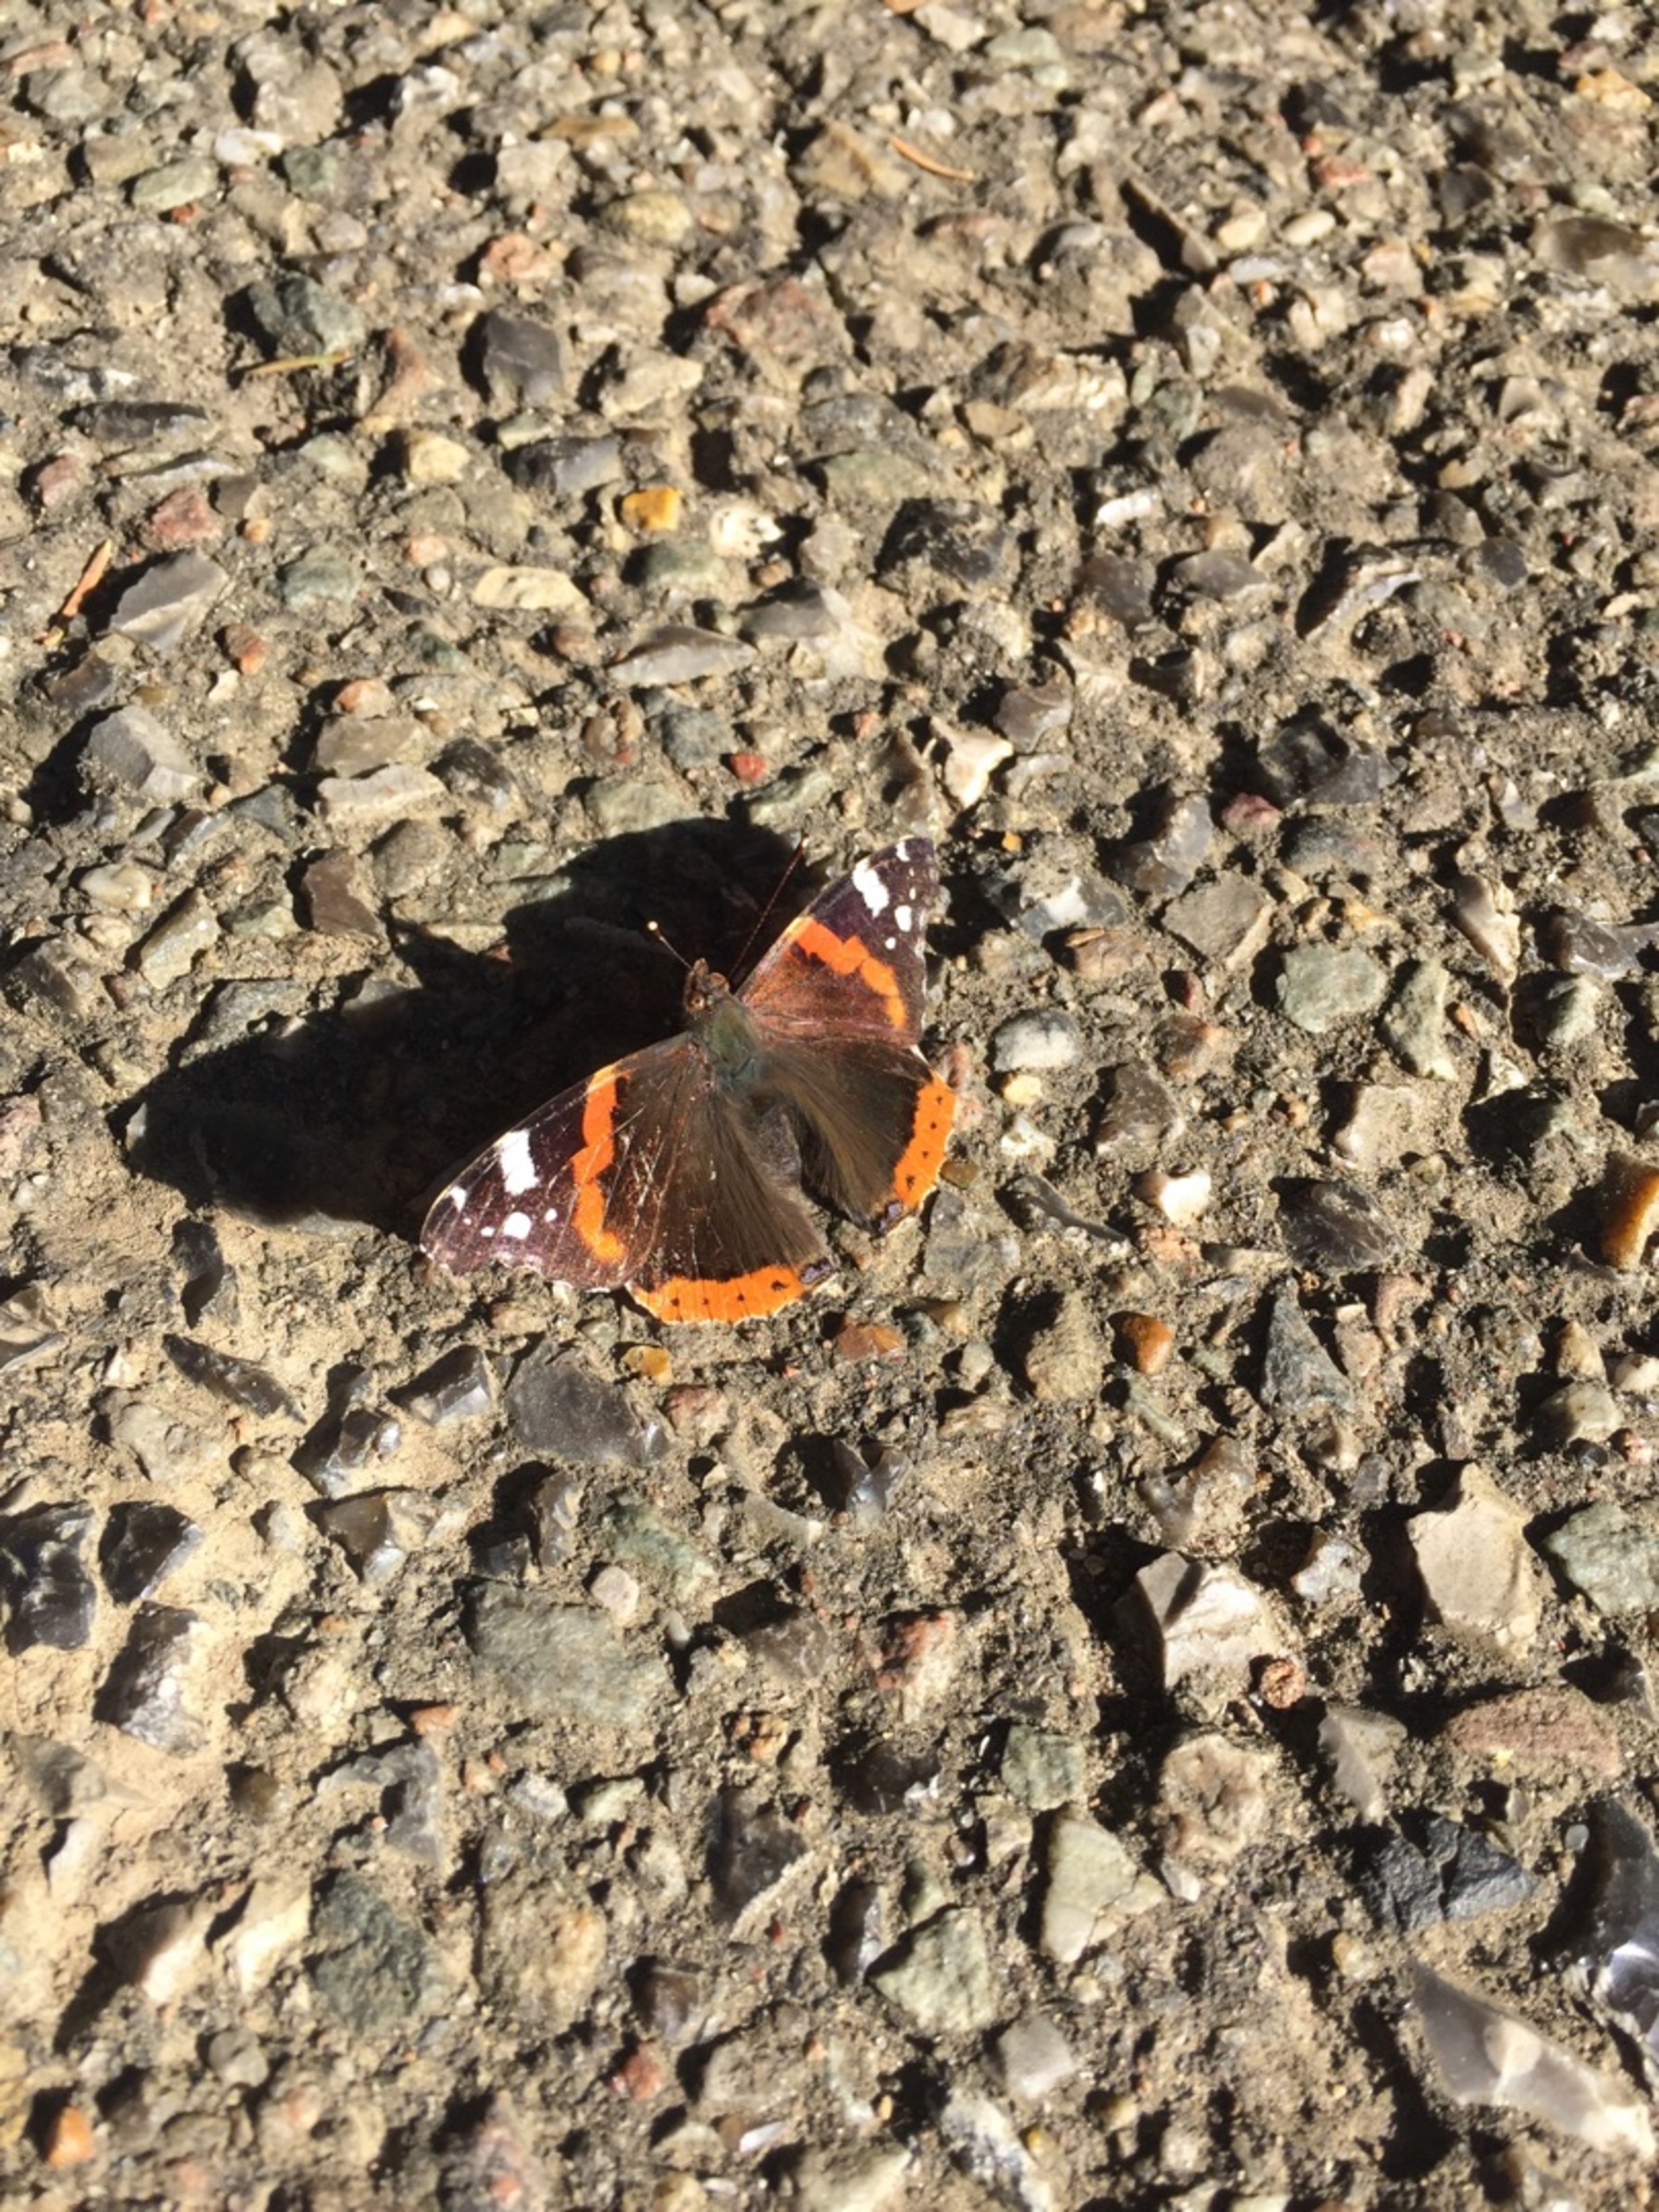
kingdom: Animalia
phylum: Arthropoda
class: Insecta
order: Lepidoptera
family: Nymphalidae
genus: Vanessa
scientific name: Vanessa atalanta
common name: Admiral
